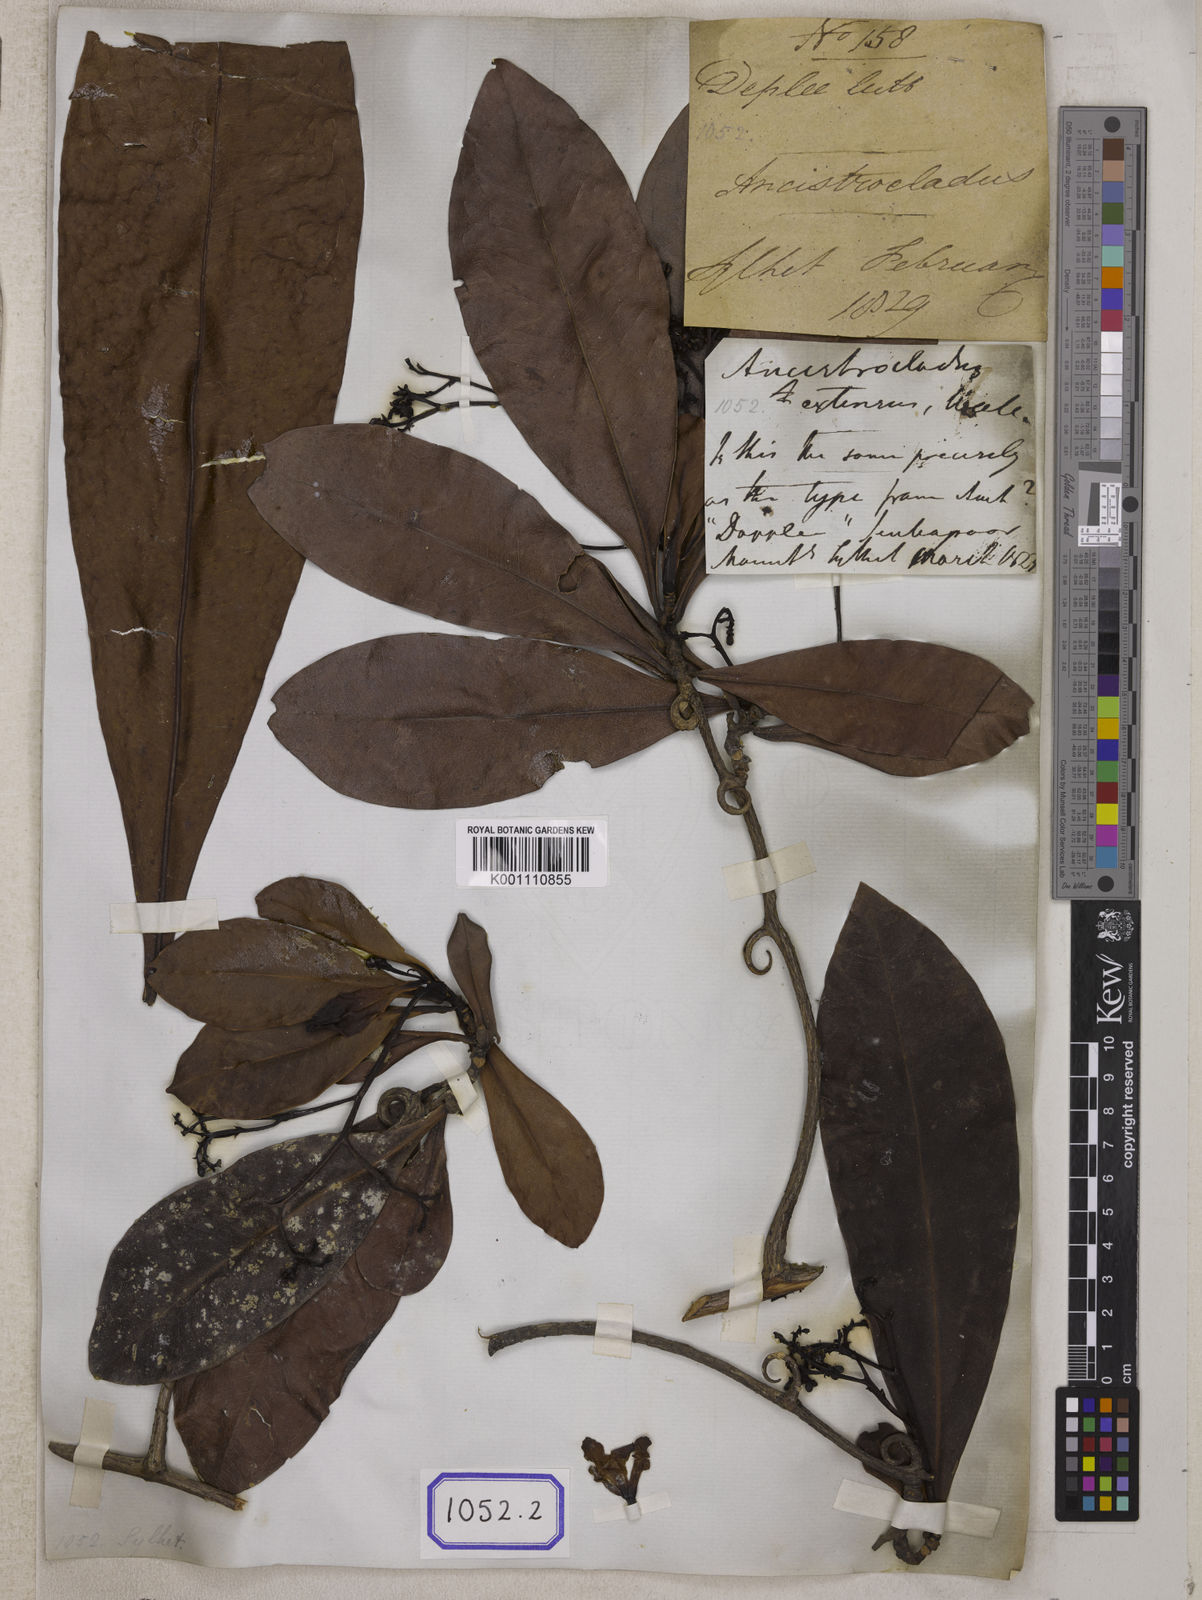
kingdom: Plantae
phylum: Tracheophyta
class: Magnoliopsida
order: Caryophyllales
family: Ancistrocladaceae
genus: Ancistrocladus
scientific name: Ancistrocladus
